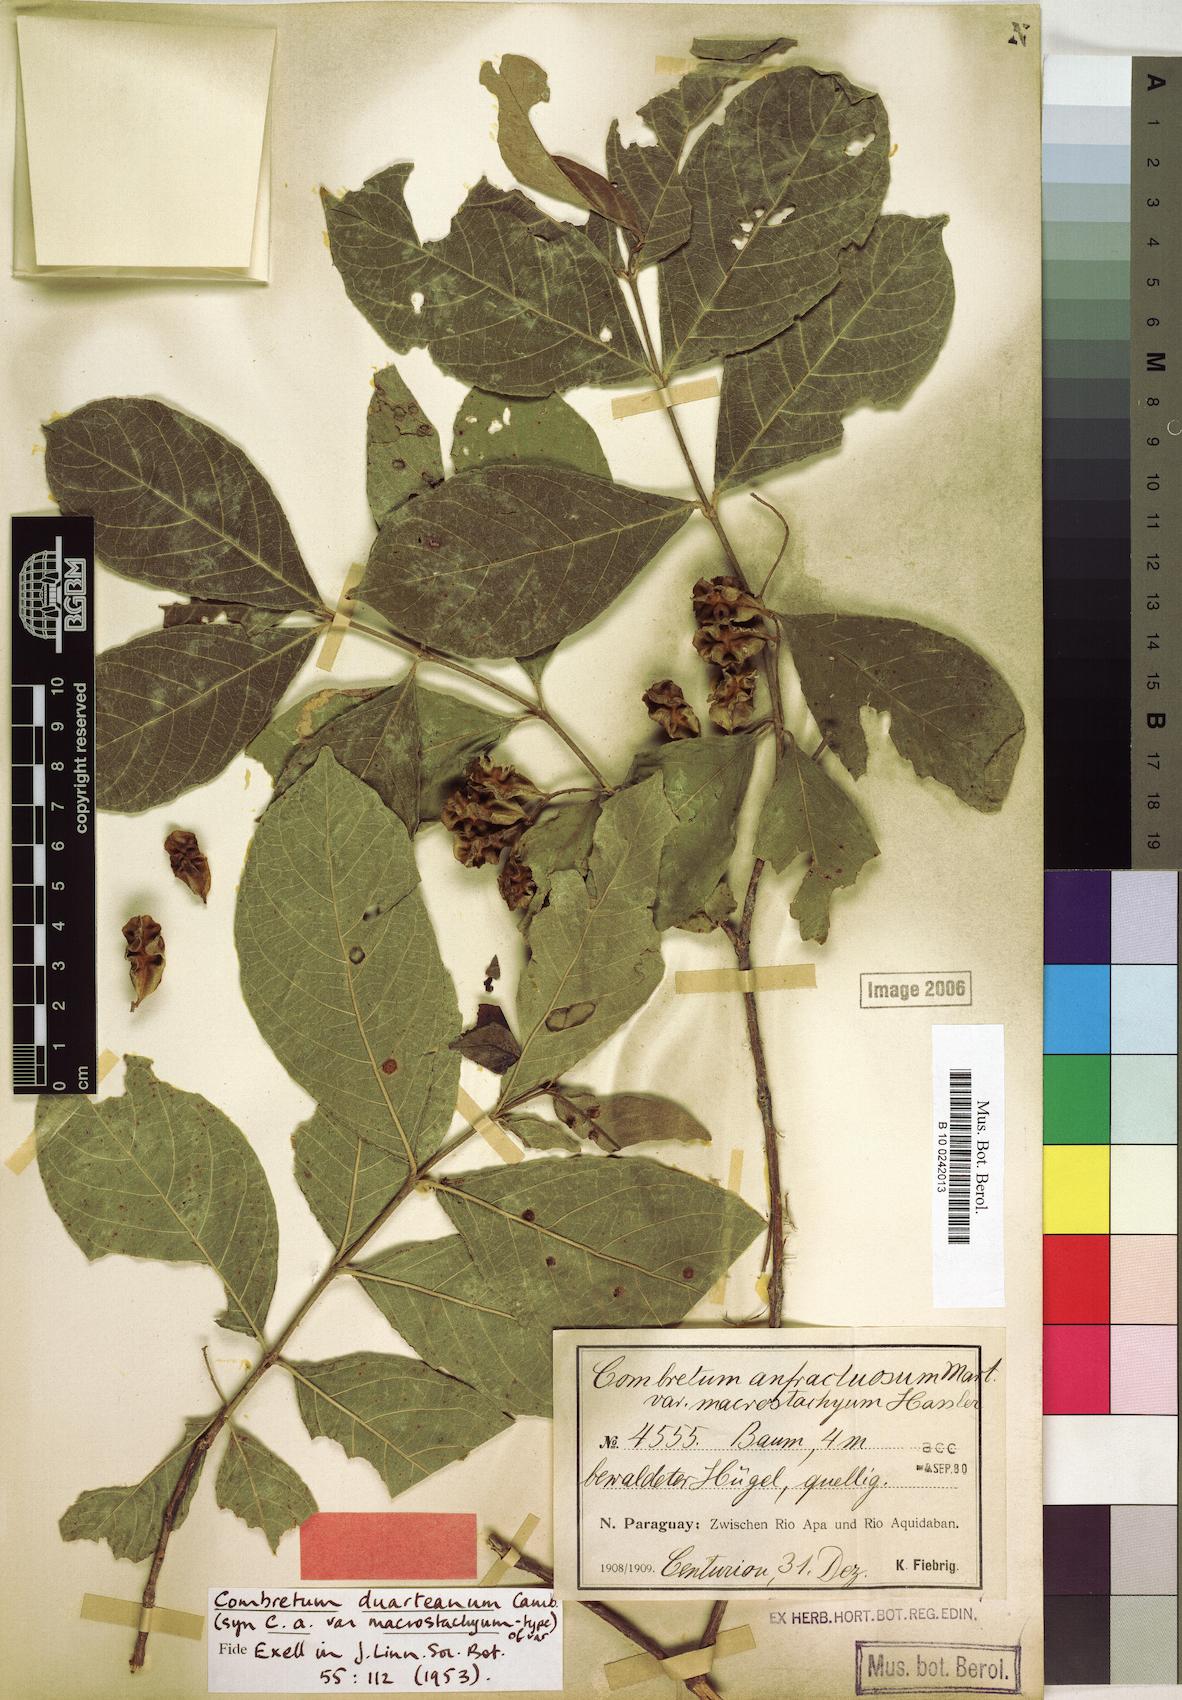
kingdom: Plantae
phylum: Tracheophyta
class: Magnoliopsida
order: Myrtales
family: Combretaceae
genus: Combretum
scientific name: Combretum duarteanum
